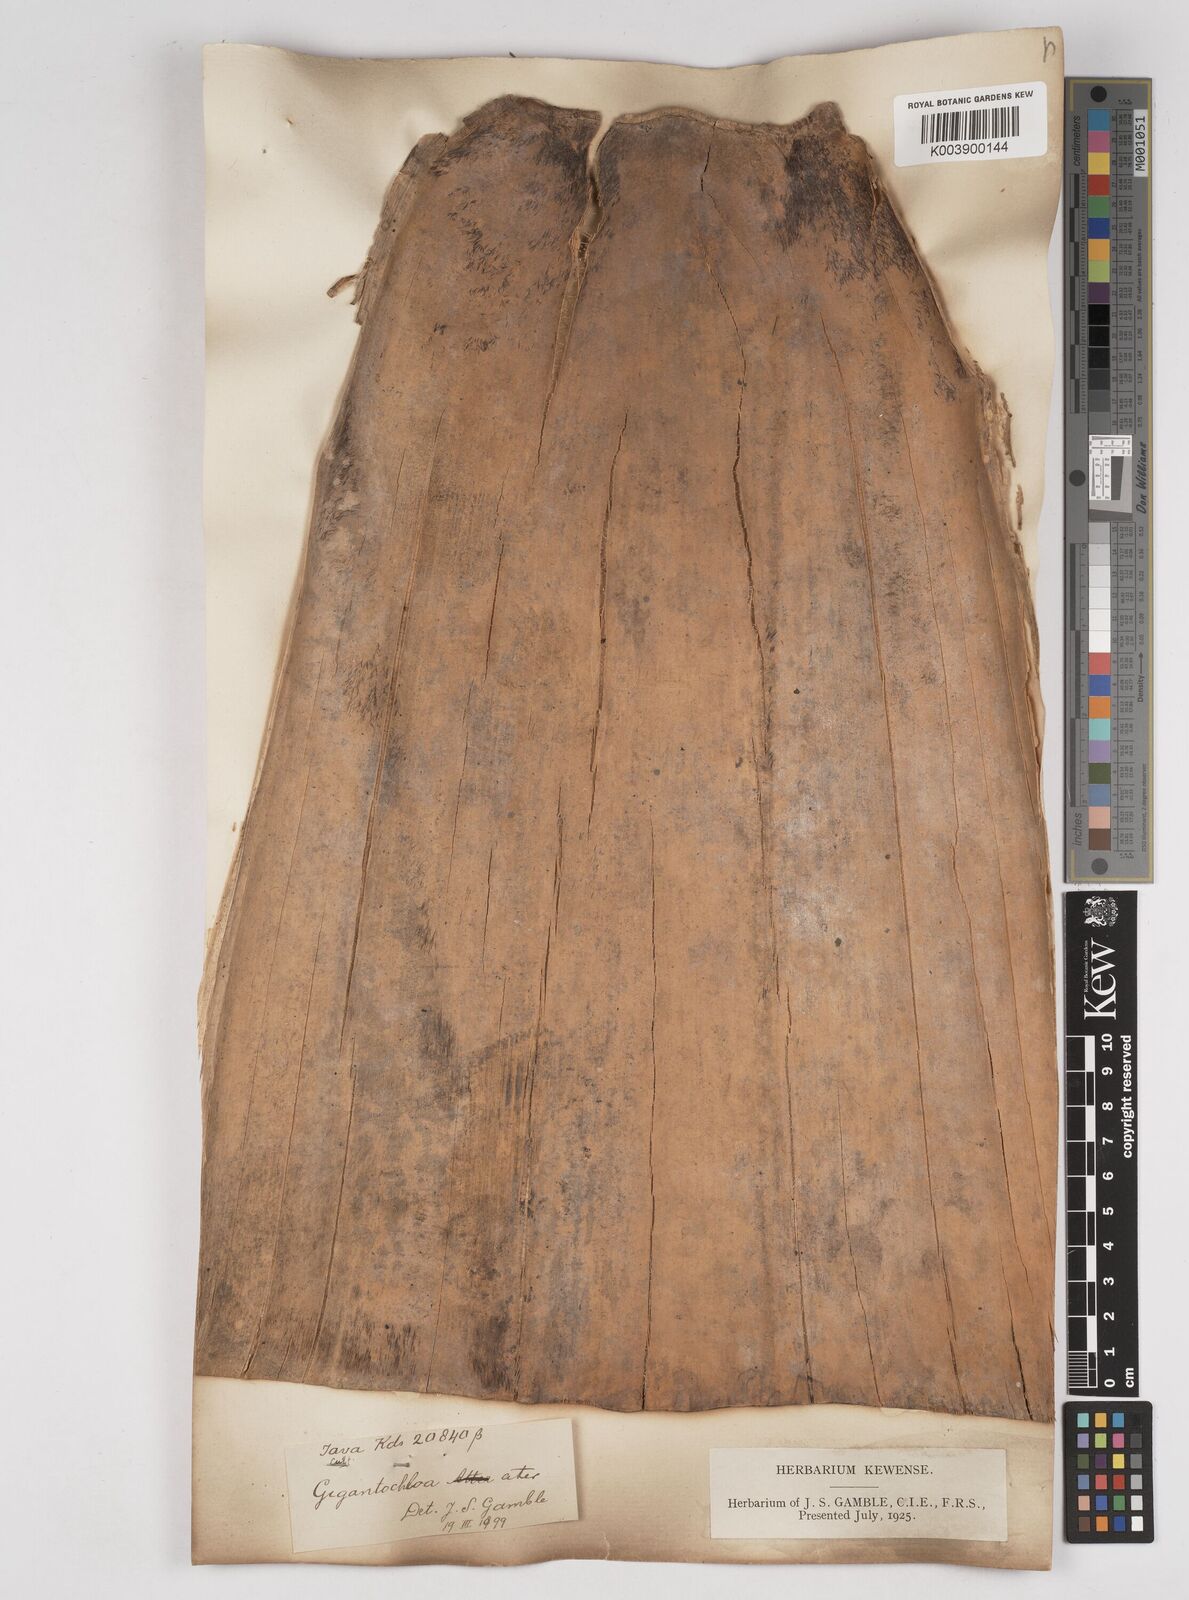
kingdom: Plantae
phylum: Tracheophyta
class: Liliopsida
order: Poales
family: Poaceae
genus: Gigantochloa
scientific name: Gigantochloa atter
